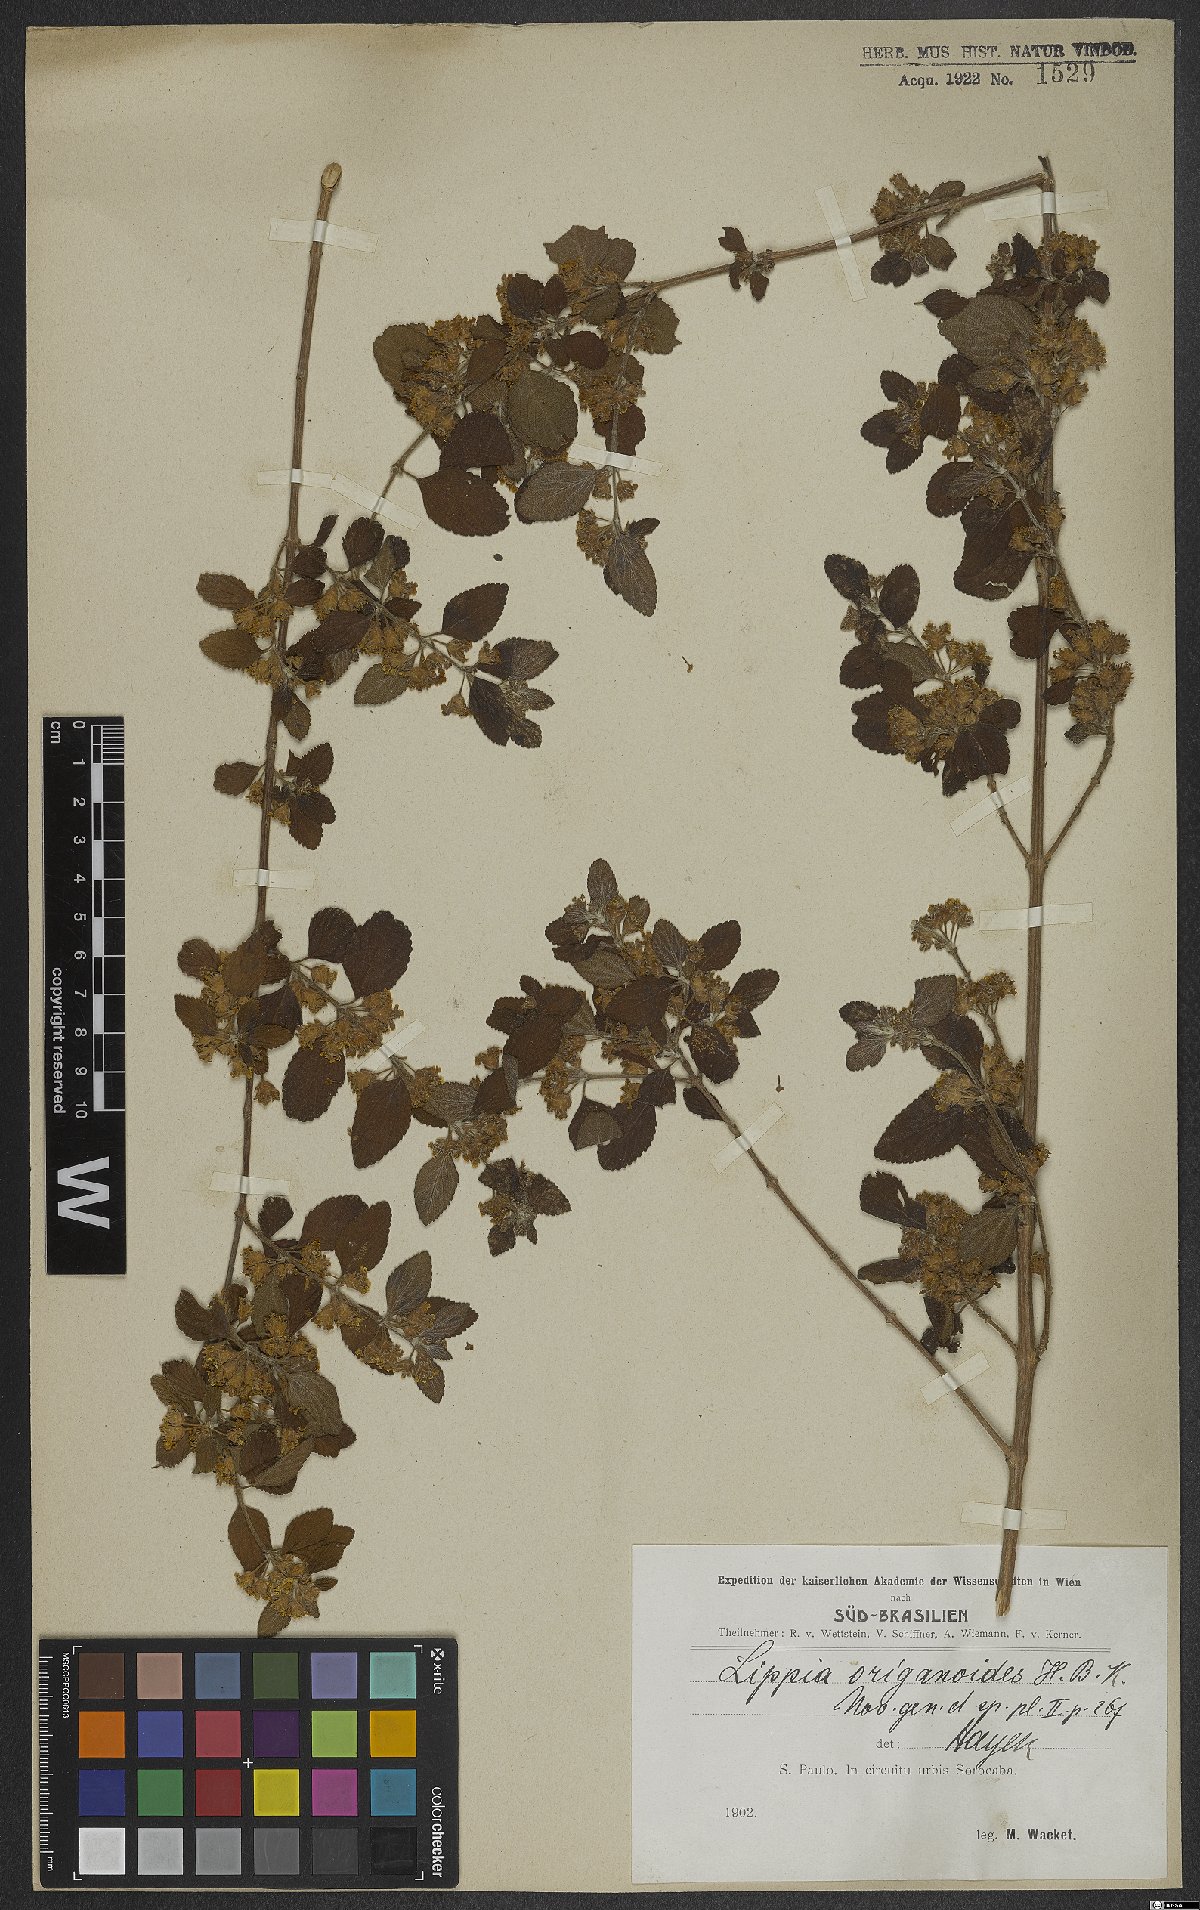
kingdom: Plantae
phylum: Tracheophyta
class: Magnoliopsida
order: Lamiales
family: Verbenaceae
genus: Lippia
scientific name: Lippia origanoides
